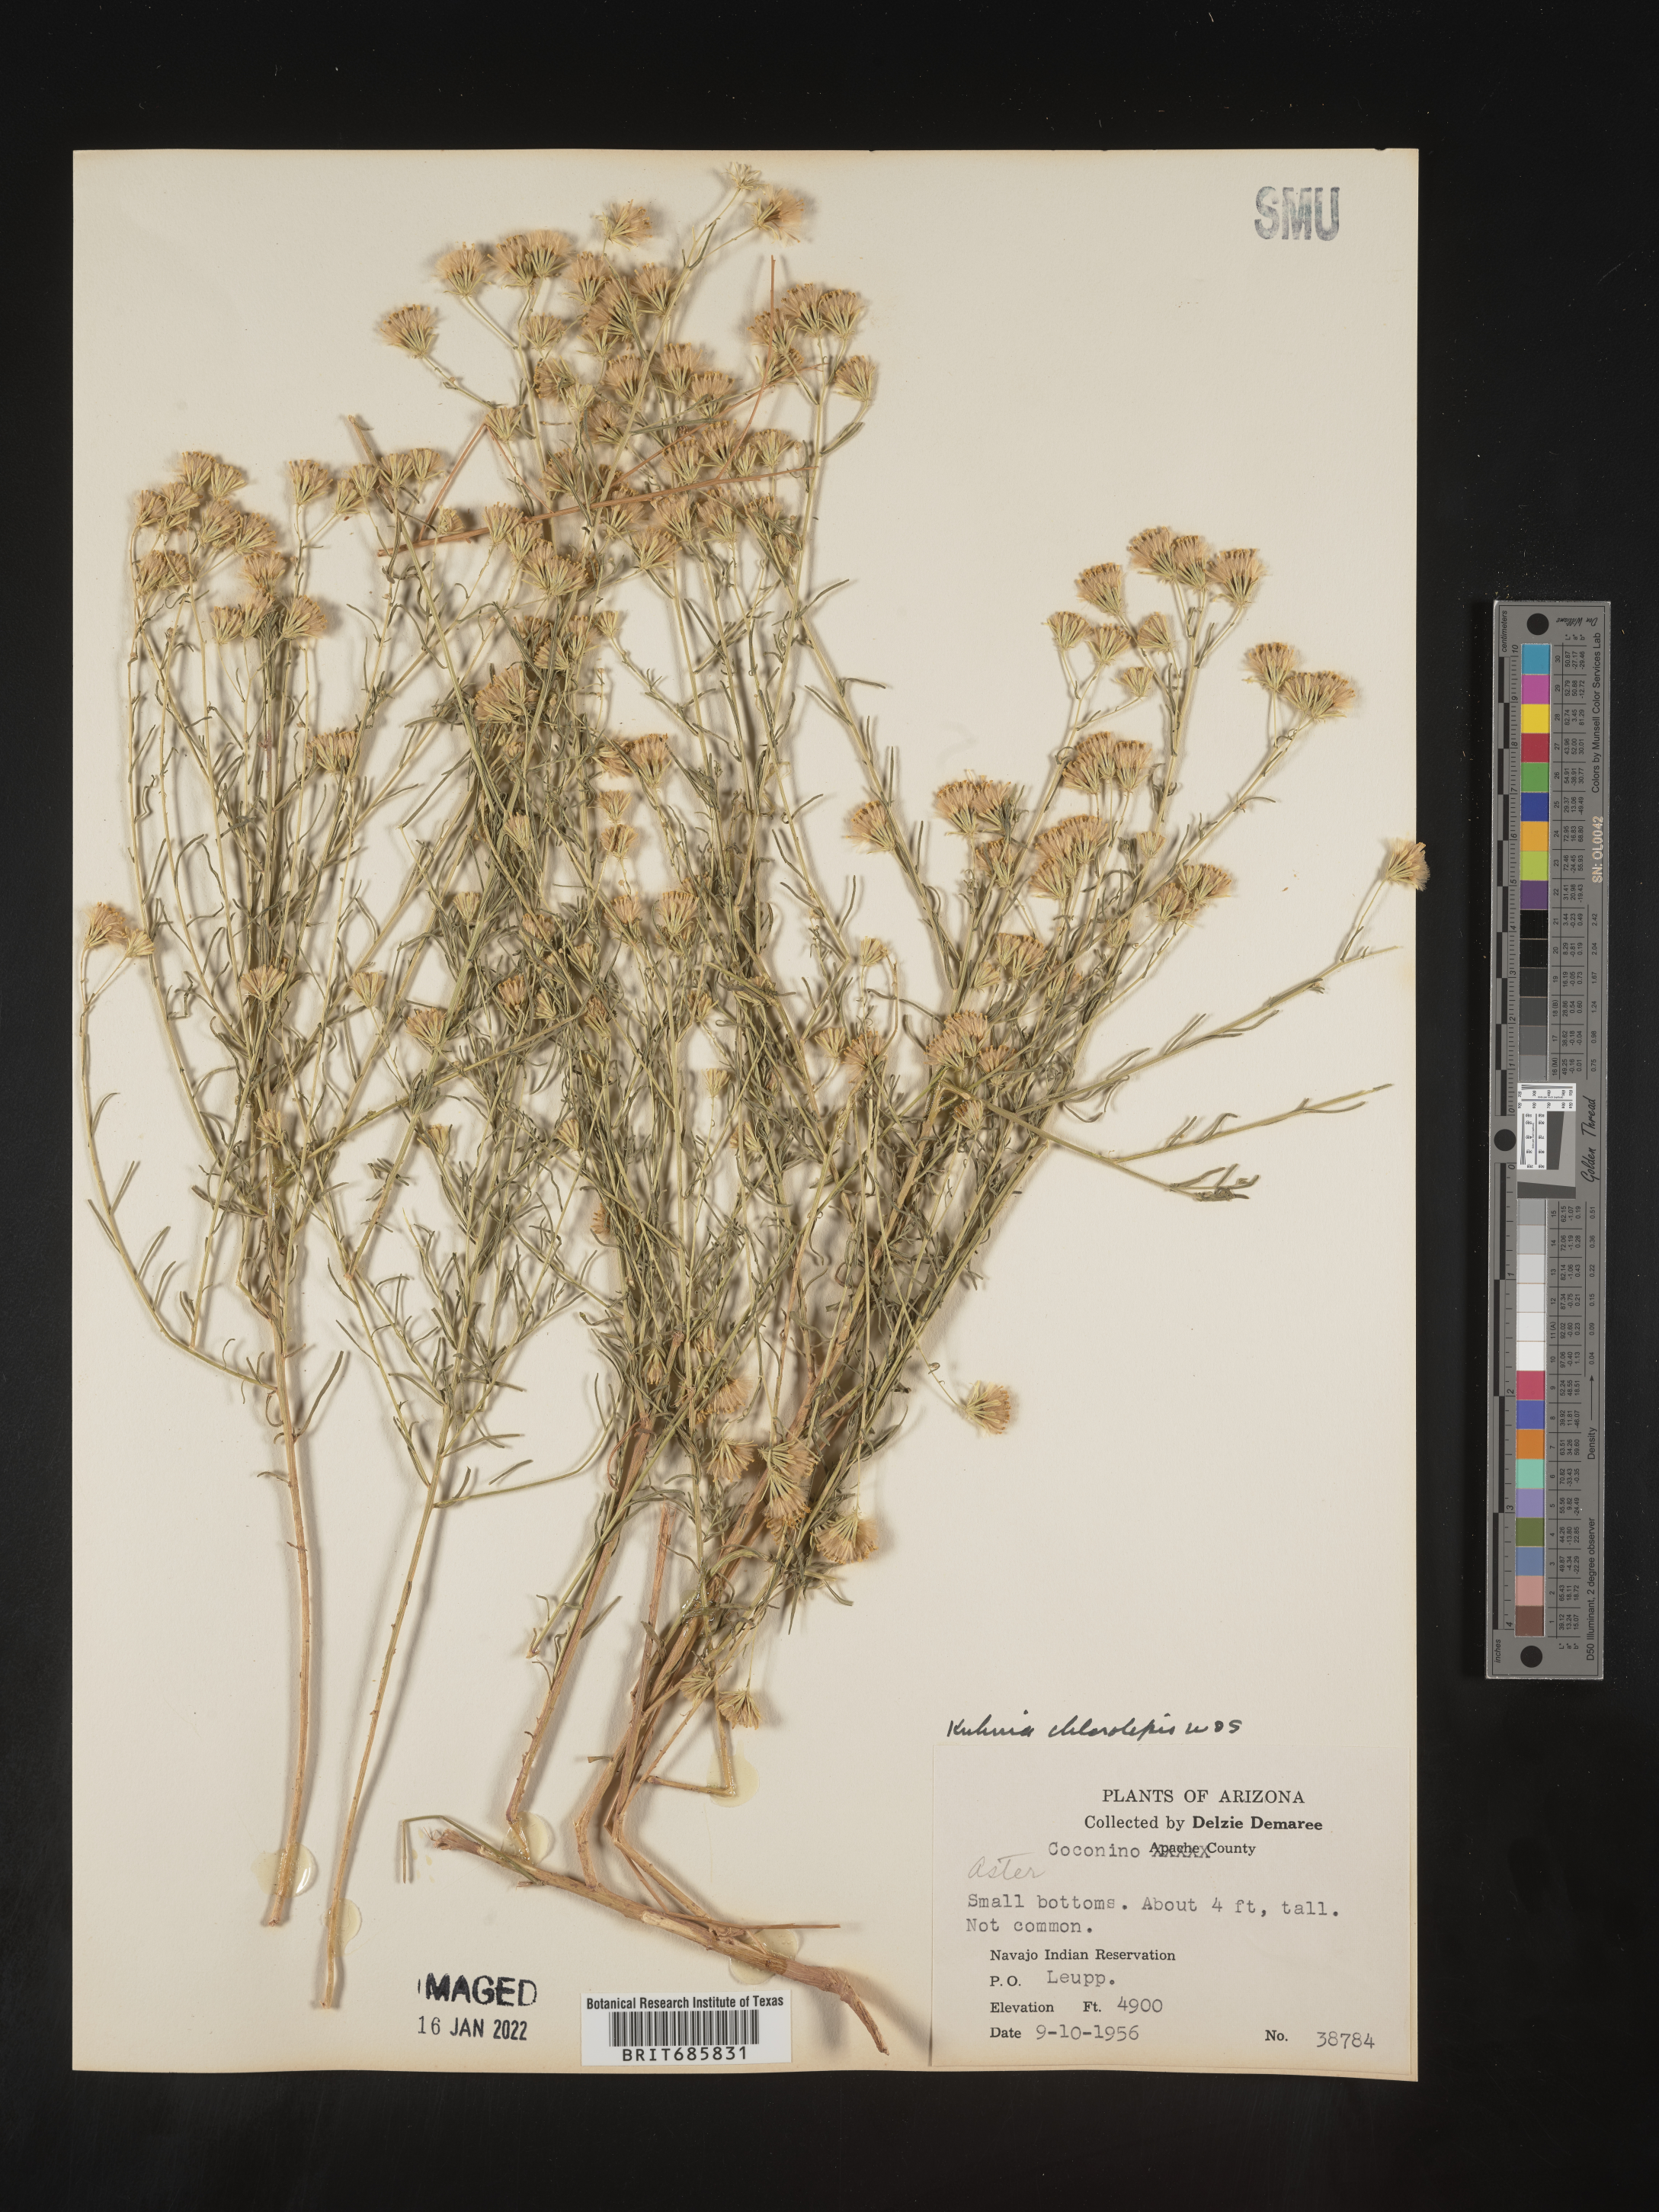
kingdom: Plantae
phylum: Tracheophyta
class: Magnoliopsida
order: Asterales
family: Asteraceae
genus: Brickellia
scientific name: Brickellia leptophylla
